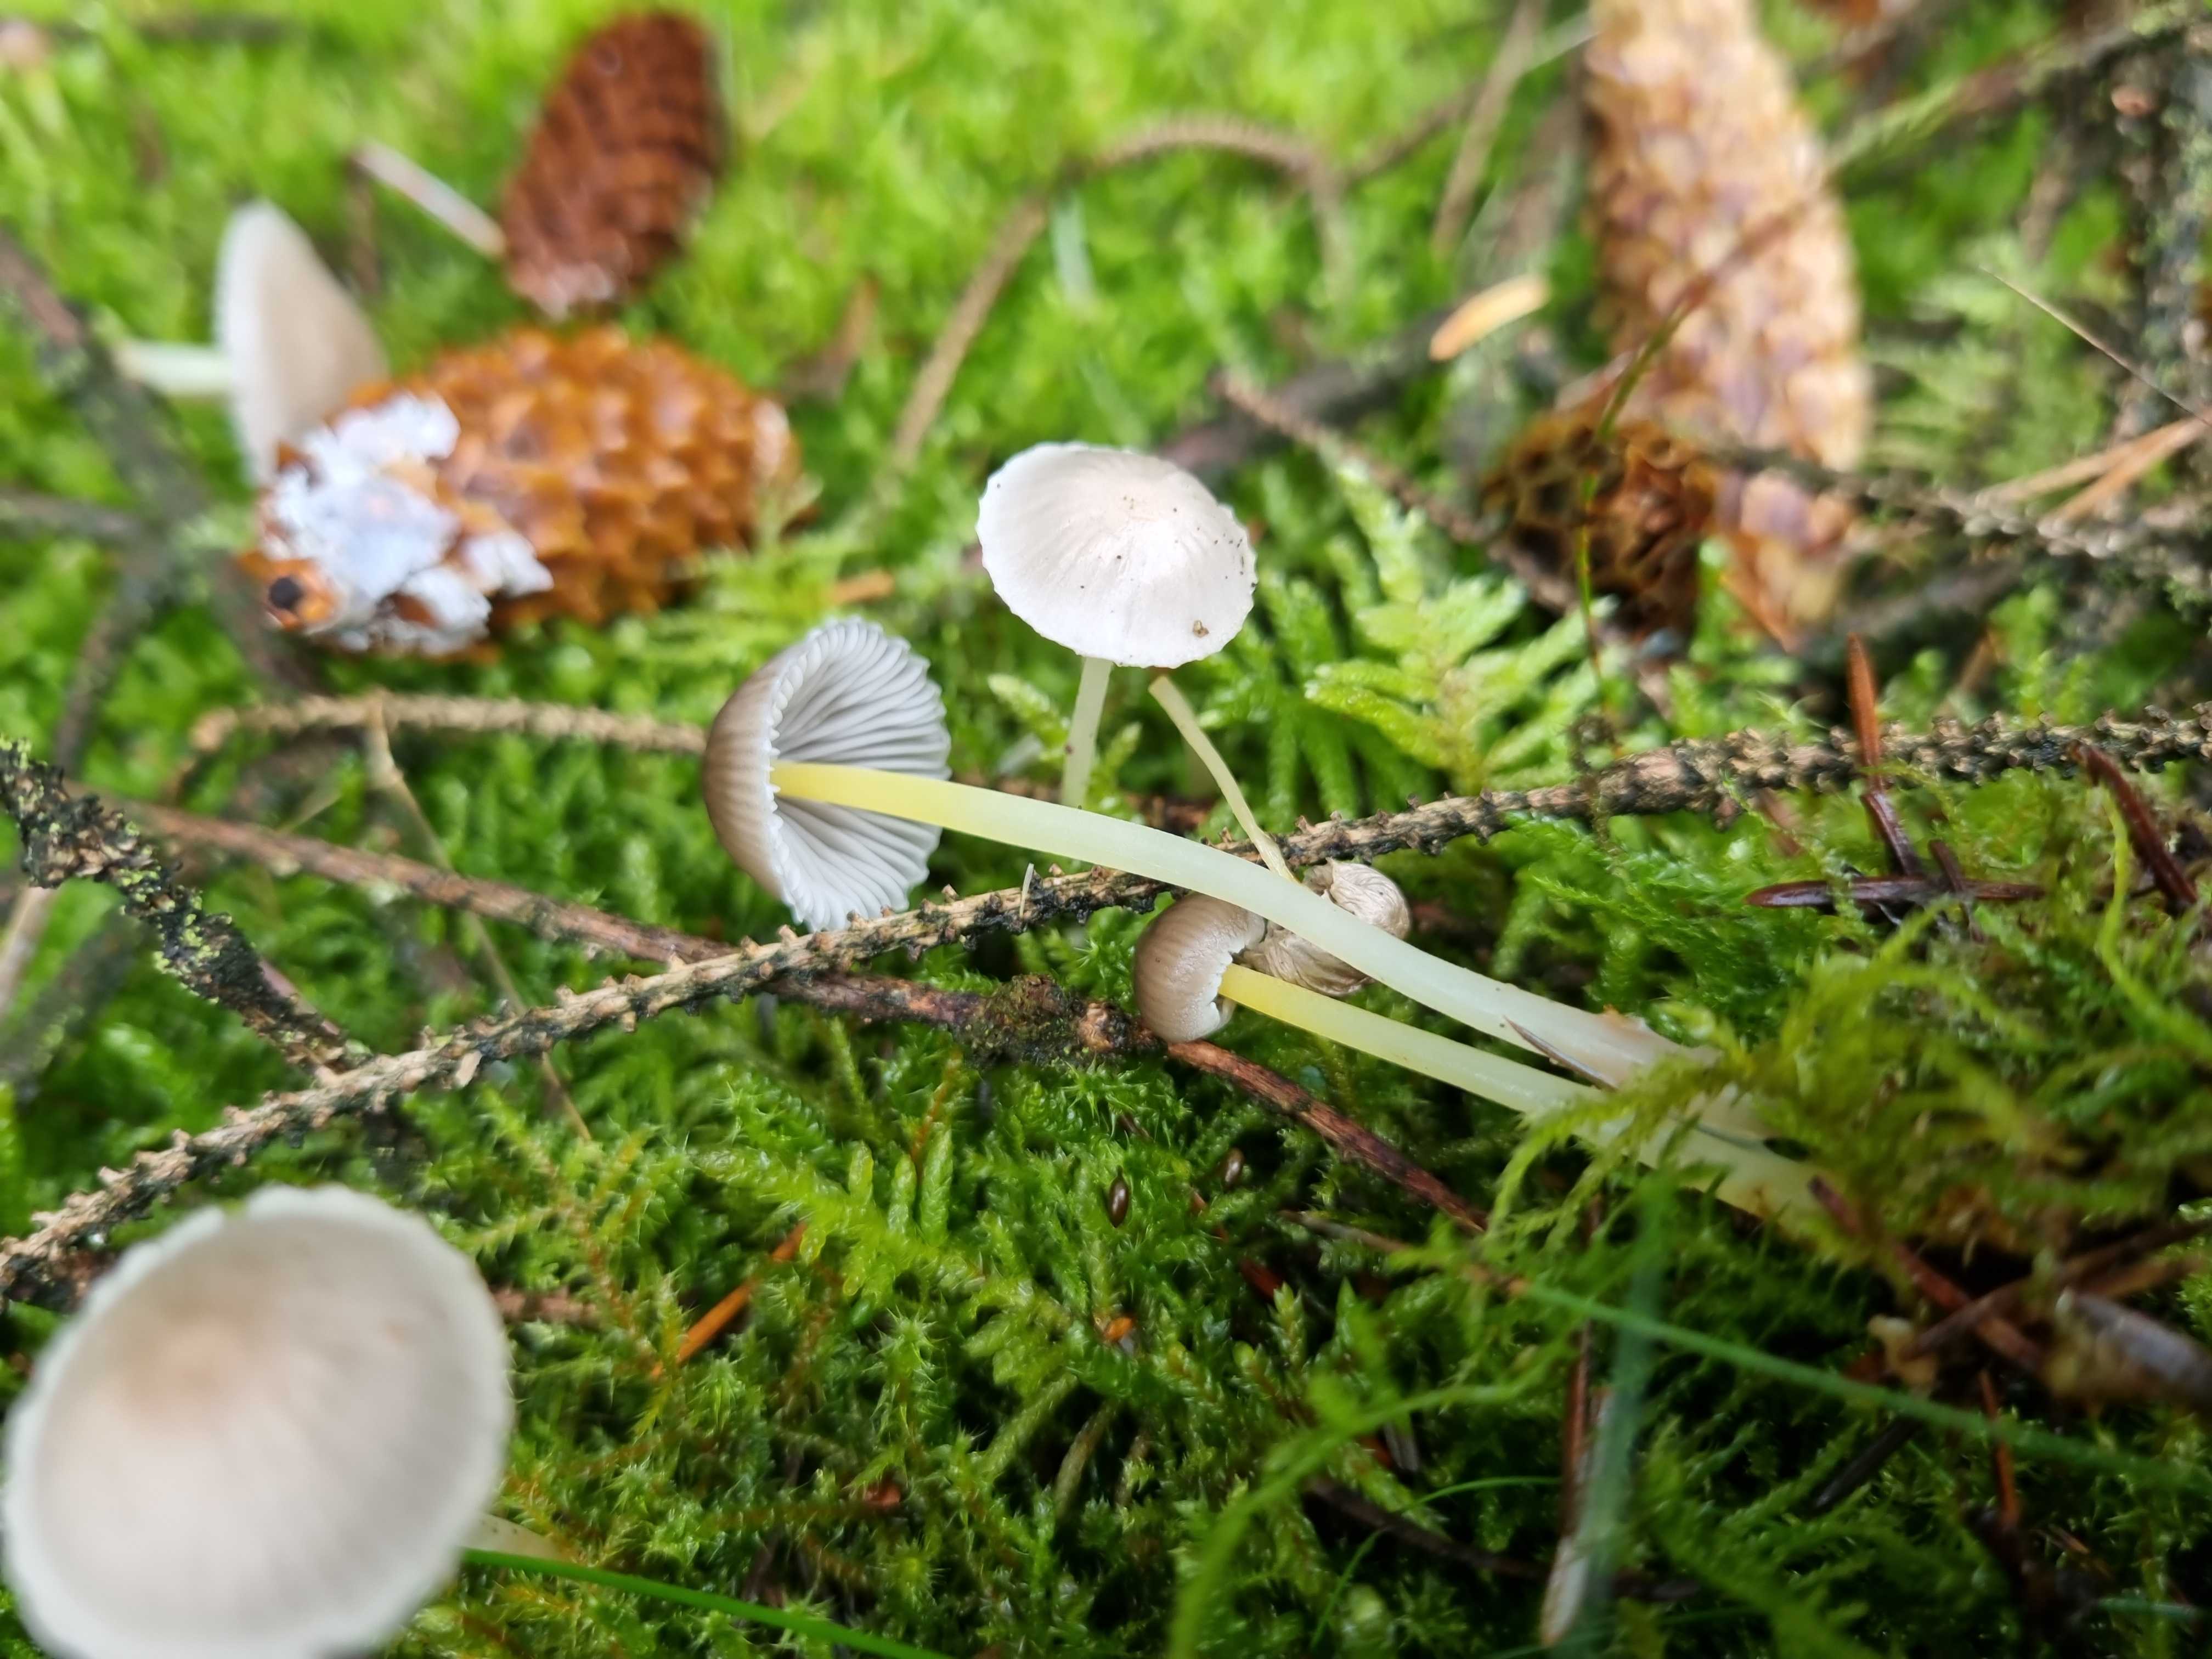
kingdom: Fungi
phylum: Basidiomycota
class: Agaricomycetes
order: Agaricales
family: Mycenaceae
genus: Mycena
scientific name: Mycena epipterygia
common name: gulstokket huesvamp
